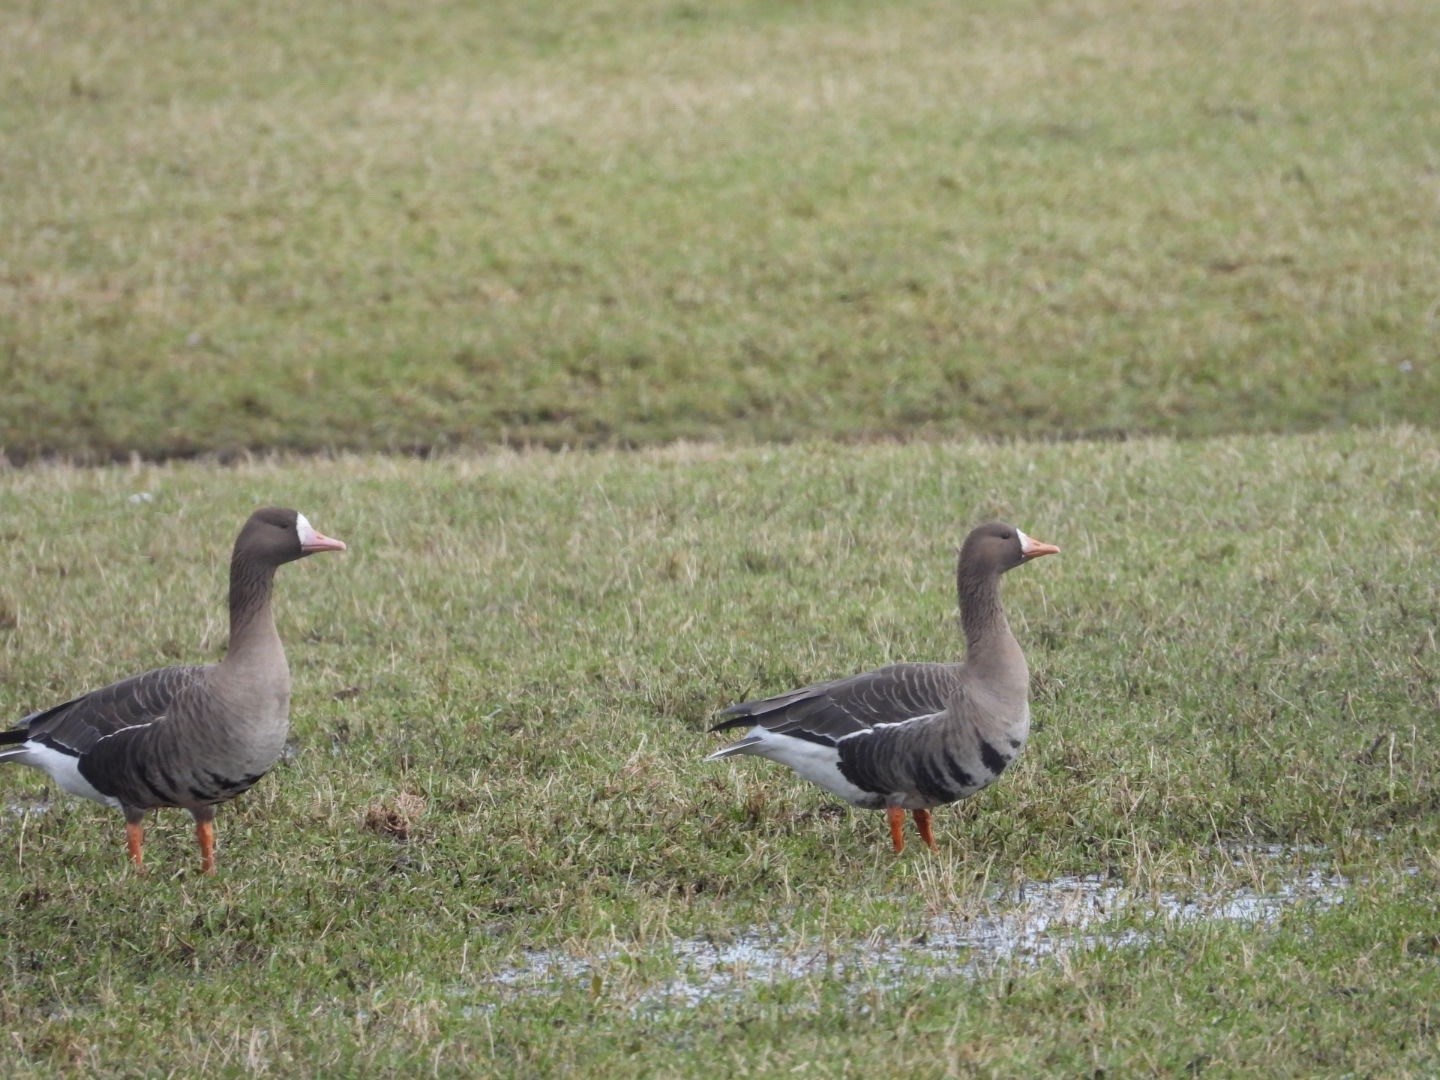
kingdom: Animalia
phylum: Chordata
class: Aves
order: Anseriformes
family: Anatidae
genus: Anser
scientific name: Anser albifrons
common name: Blisgås
